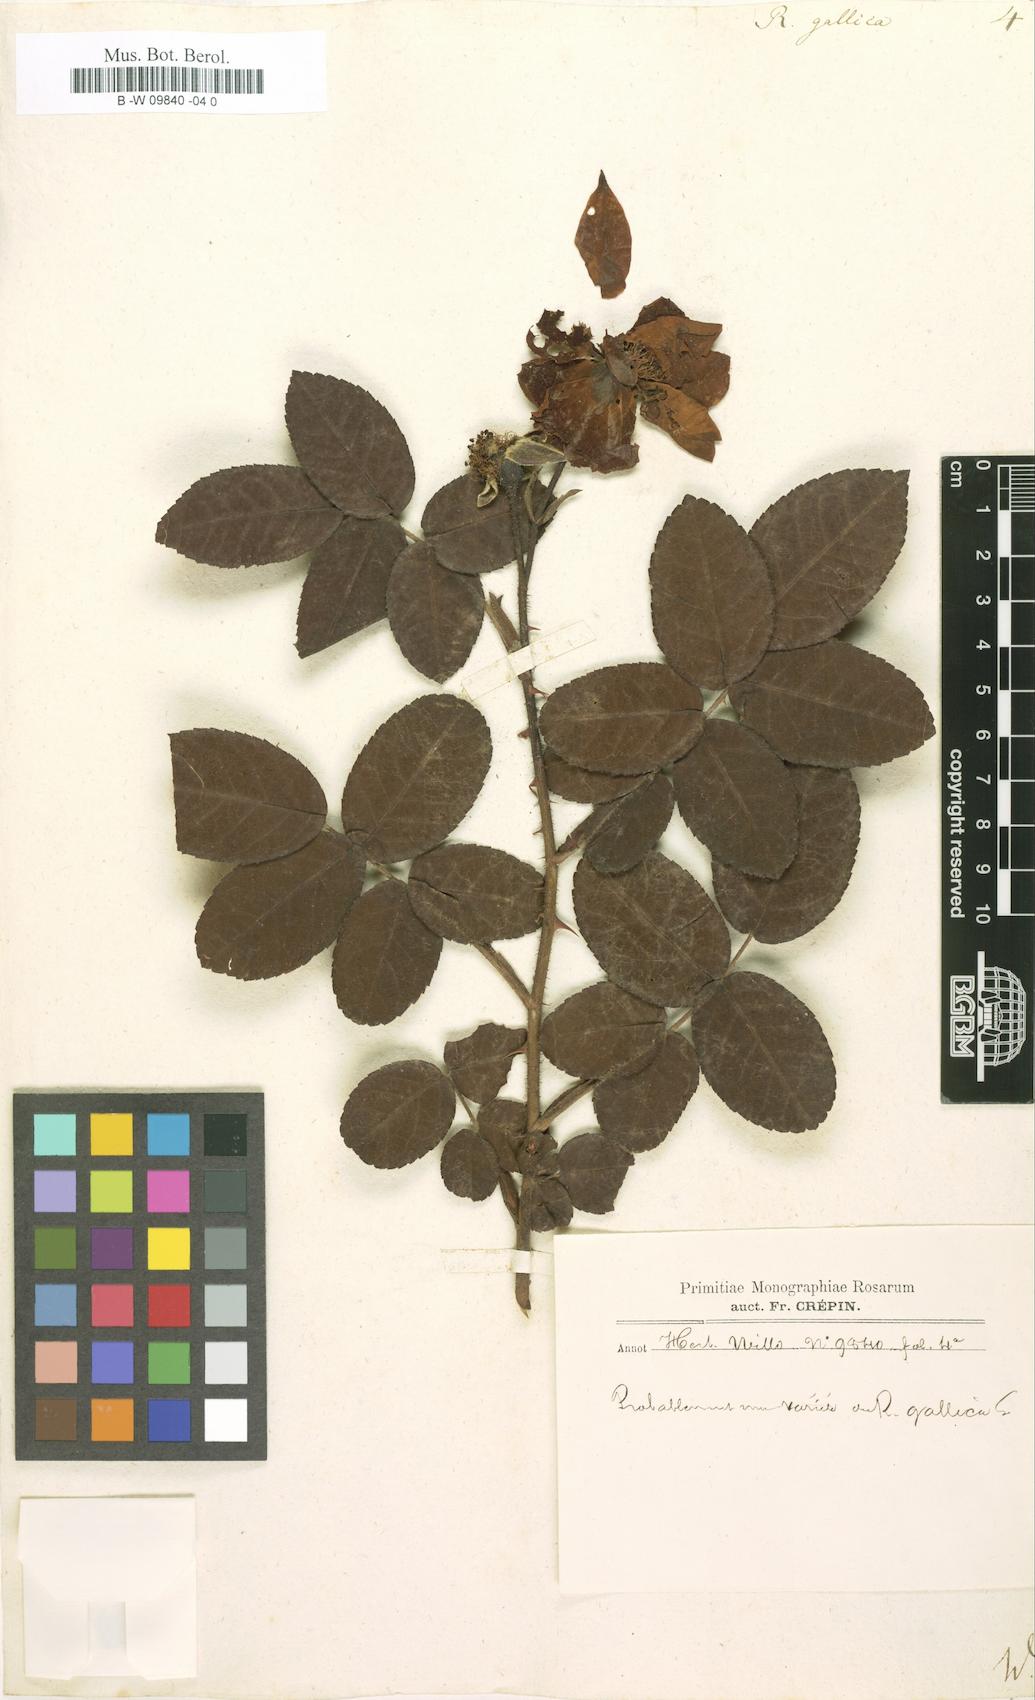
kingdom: Plantae
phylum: Tracheophyta
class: Magnoliopsida
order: Rosales
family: Rosaceae
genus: Rosa
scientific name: Rosa gallica
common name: French rose
